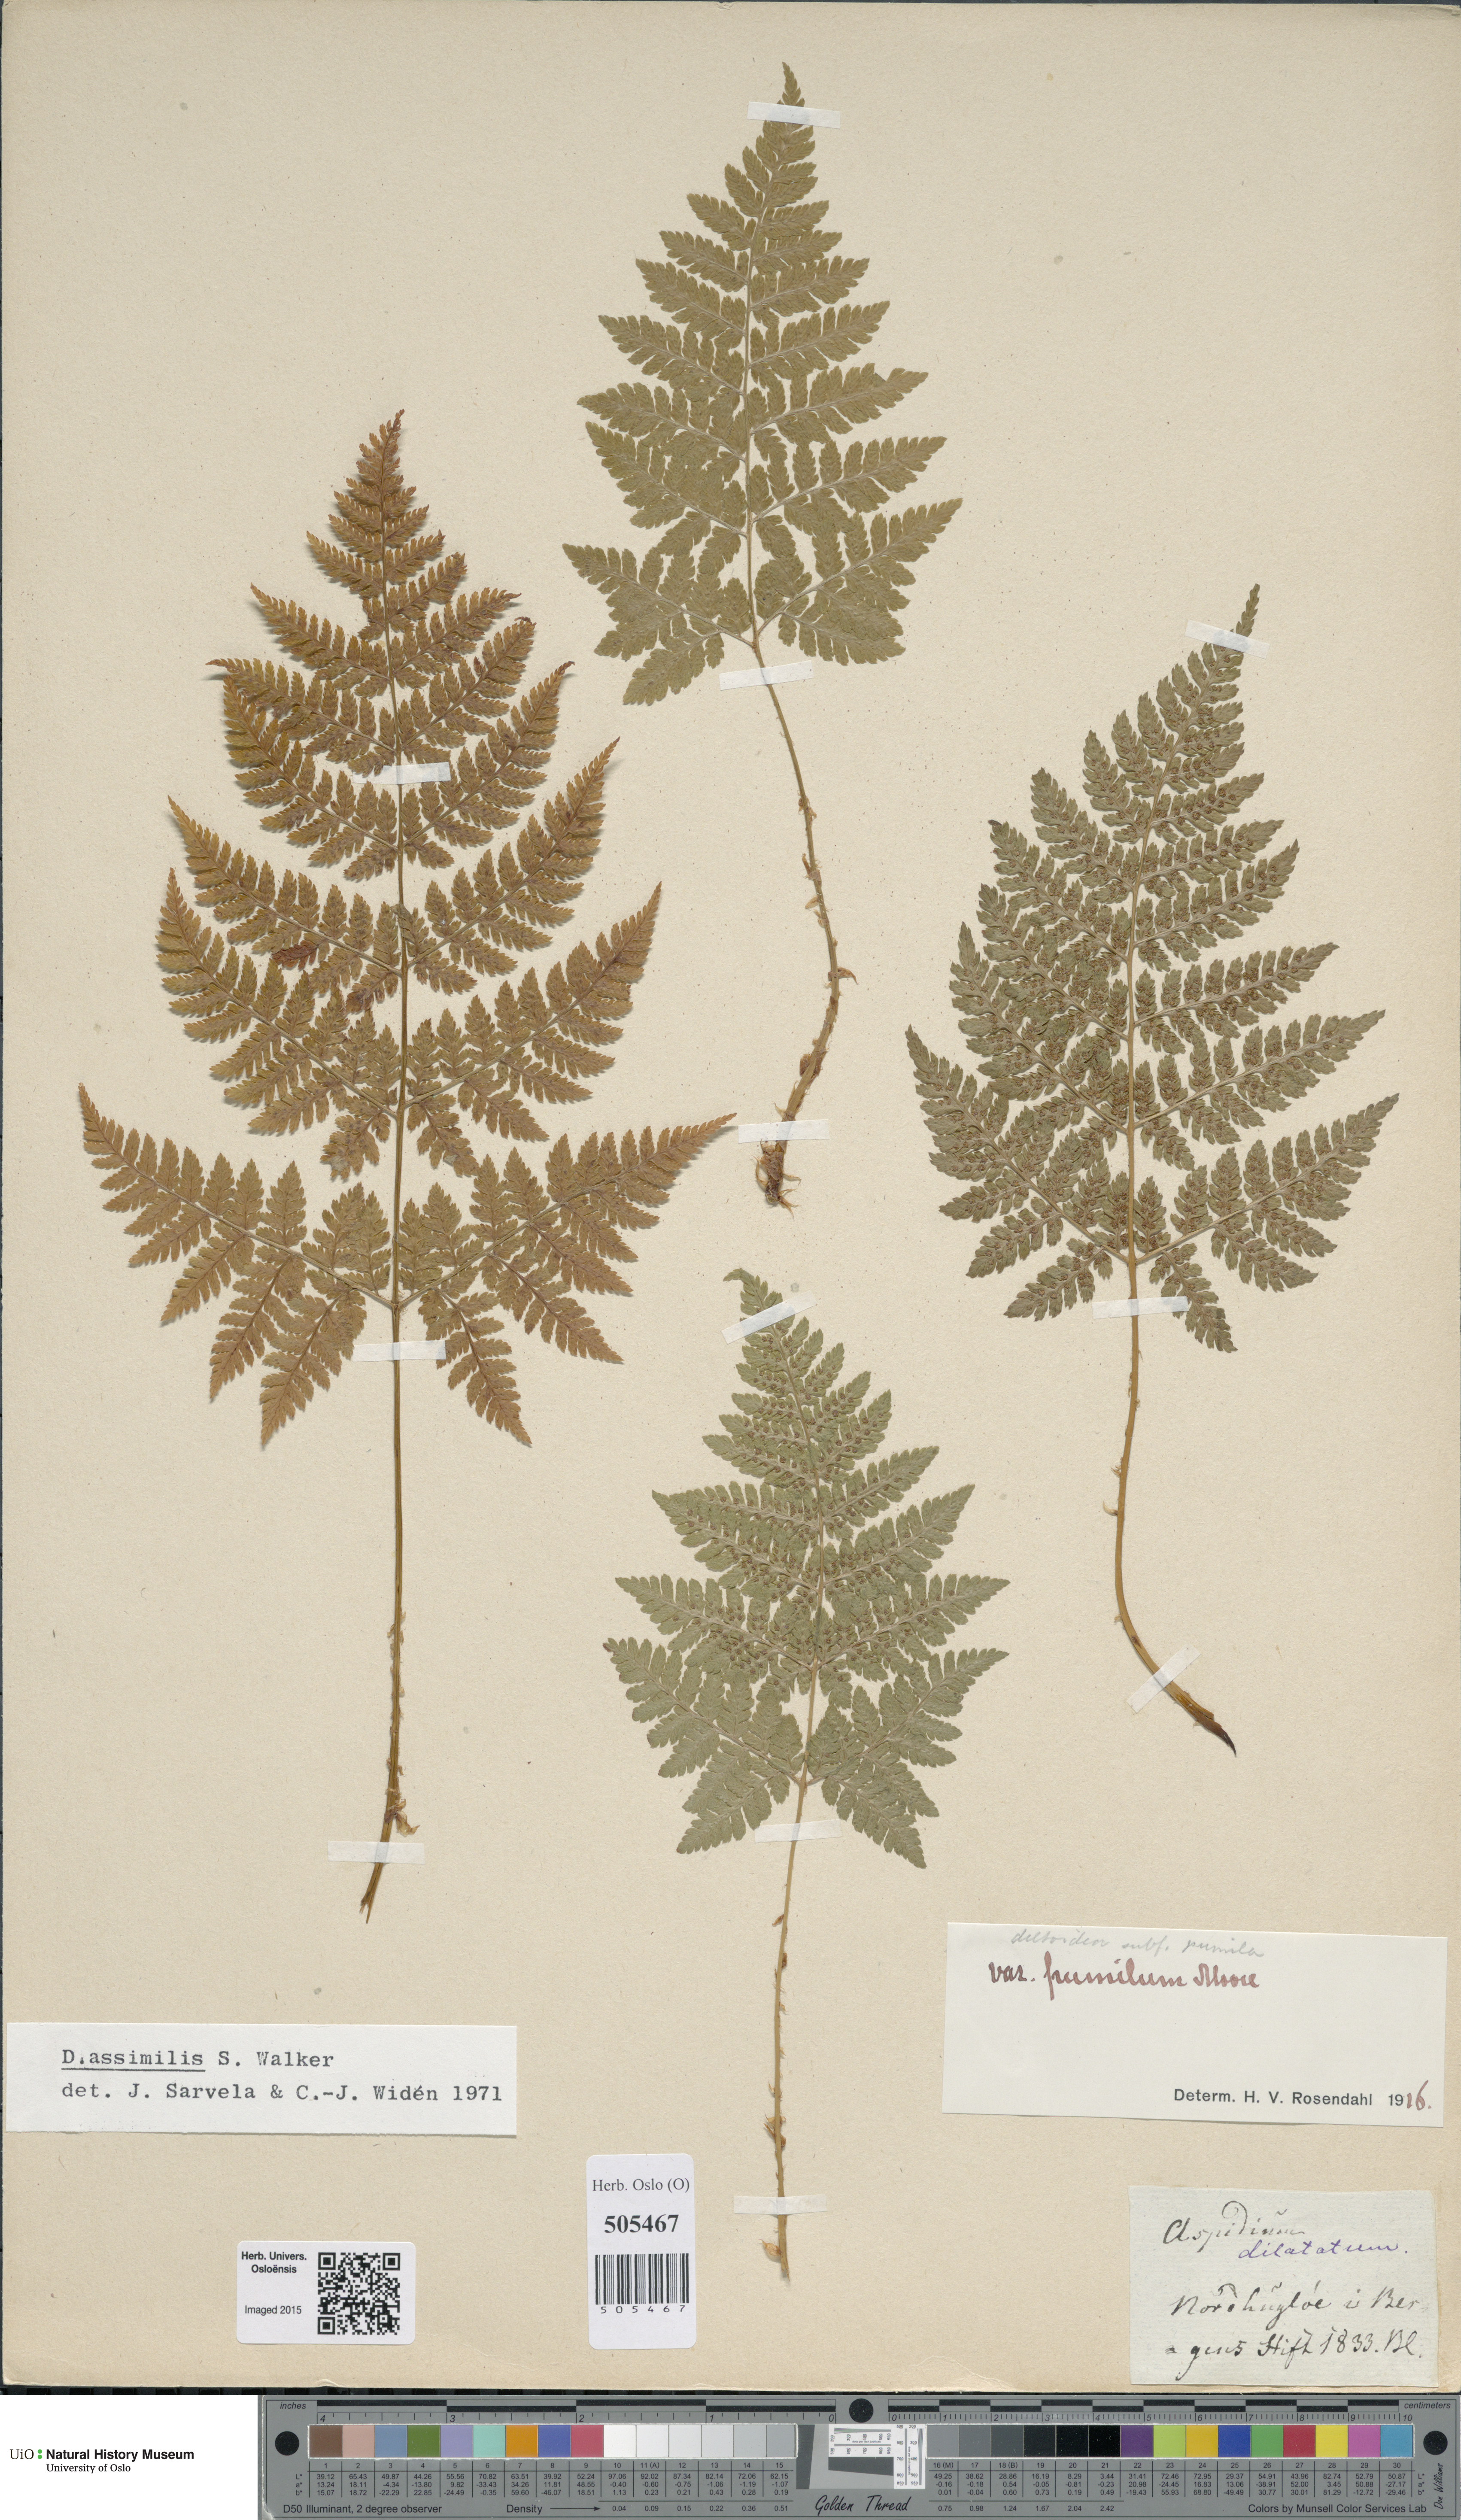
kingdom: Plantae
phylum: Tracheophyta
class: Polypodiopsida
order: Polypodiales
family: Dryopteridaceae
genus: Dryopteris
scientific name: Dryopteris expansa
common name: Northern buckler fern
